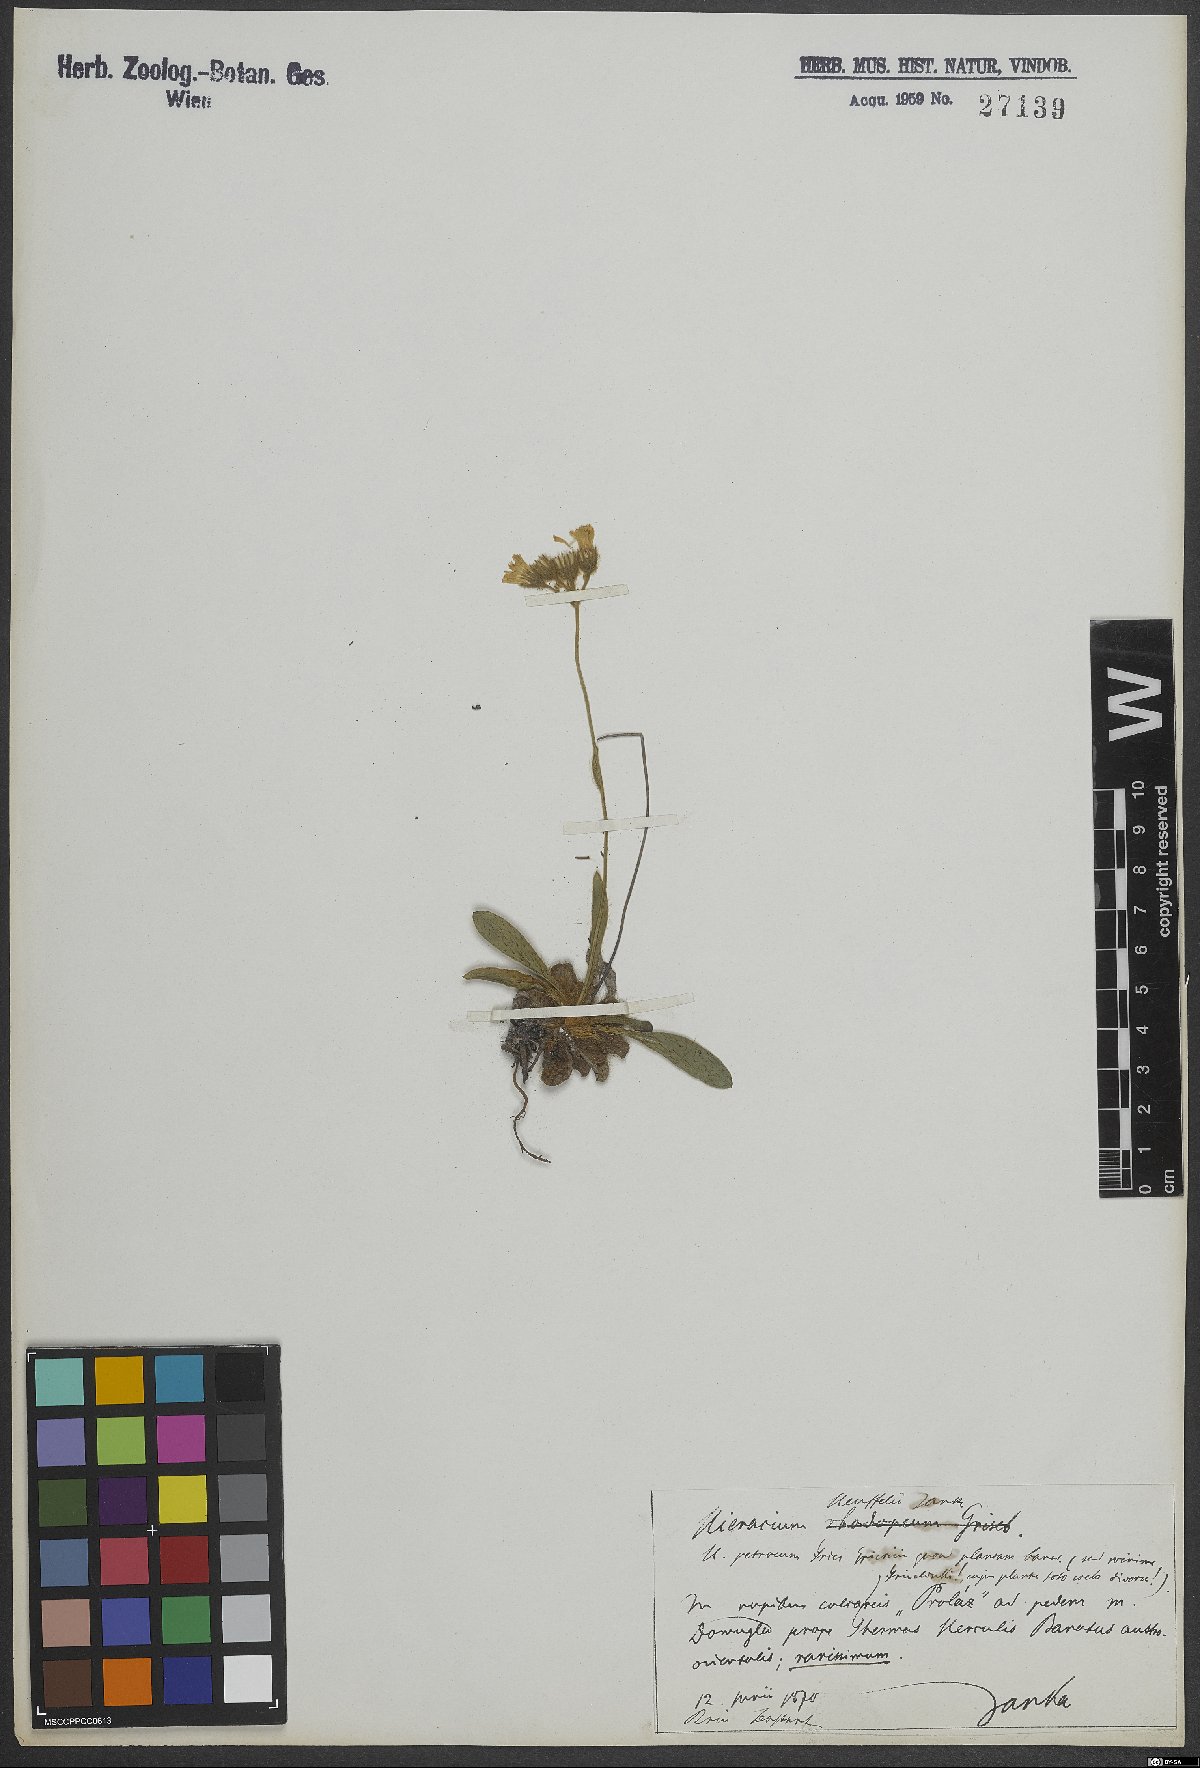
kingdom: Plantae
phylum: Tracheophyta
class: Magnoliopsida
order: Asterales
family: Asteraceae
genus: Pilosella
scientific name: Pilosella petraea
